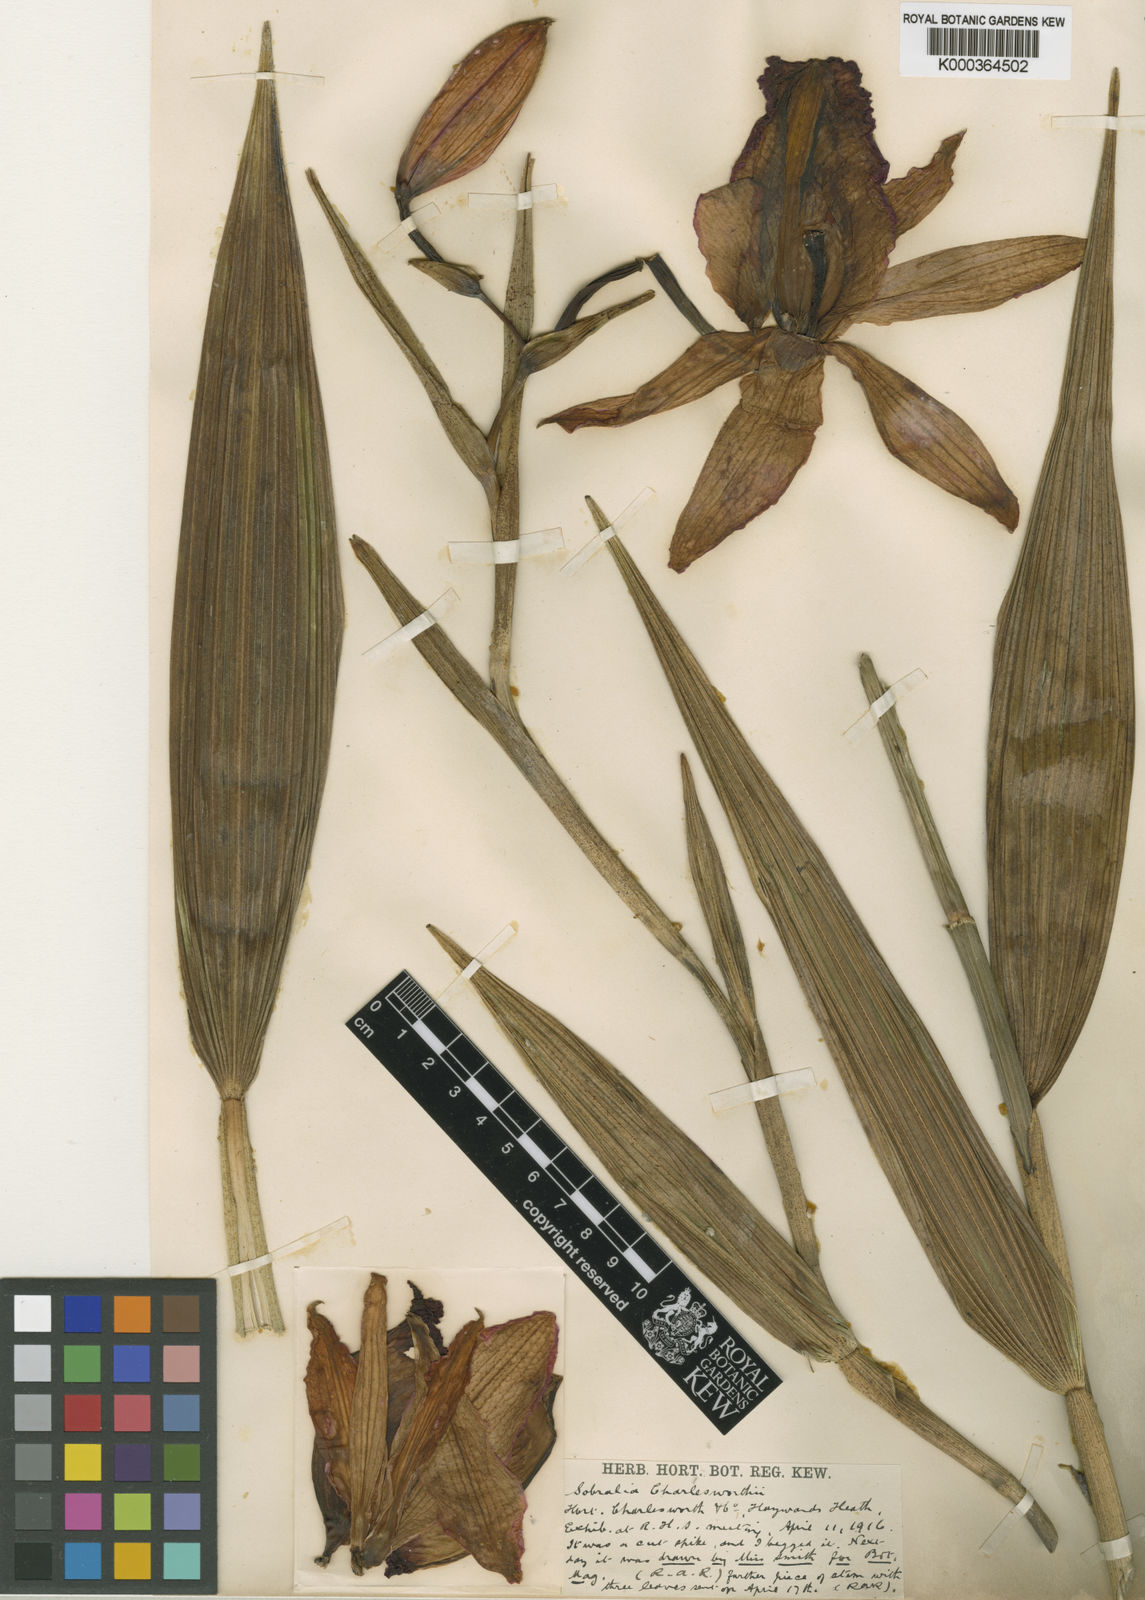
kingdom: Plantae
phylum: Tracheophyta
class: Liliopsida
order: Asparagales
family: Orchidaceae
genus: Sobralia
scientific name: Sobralia
